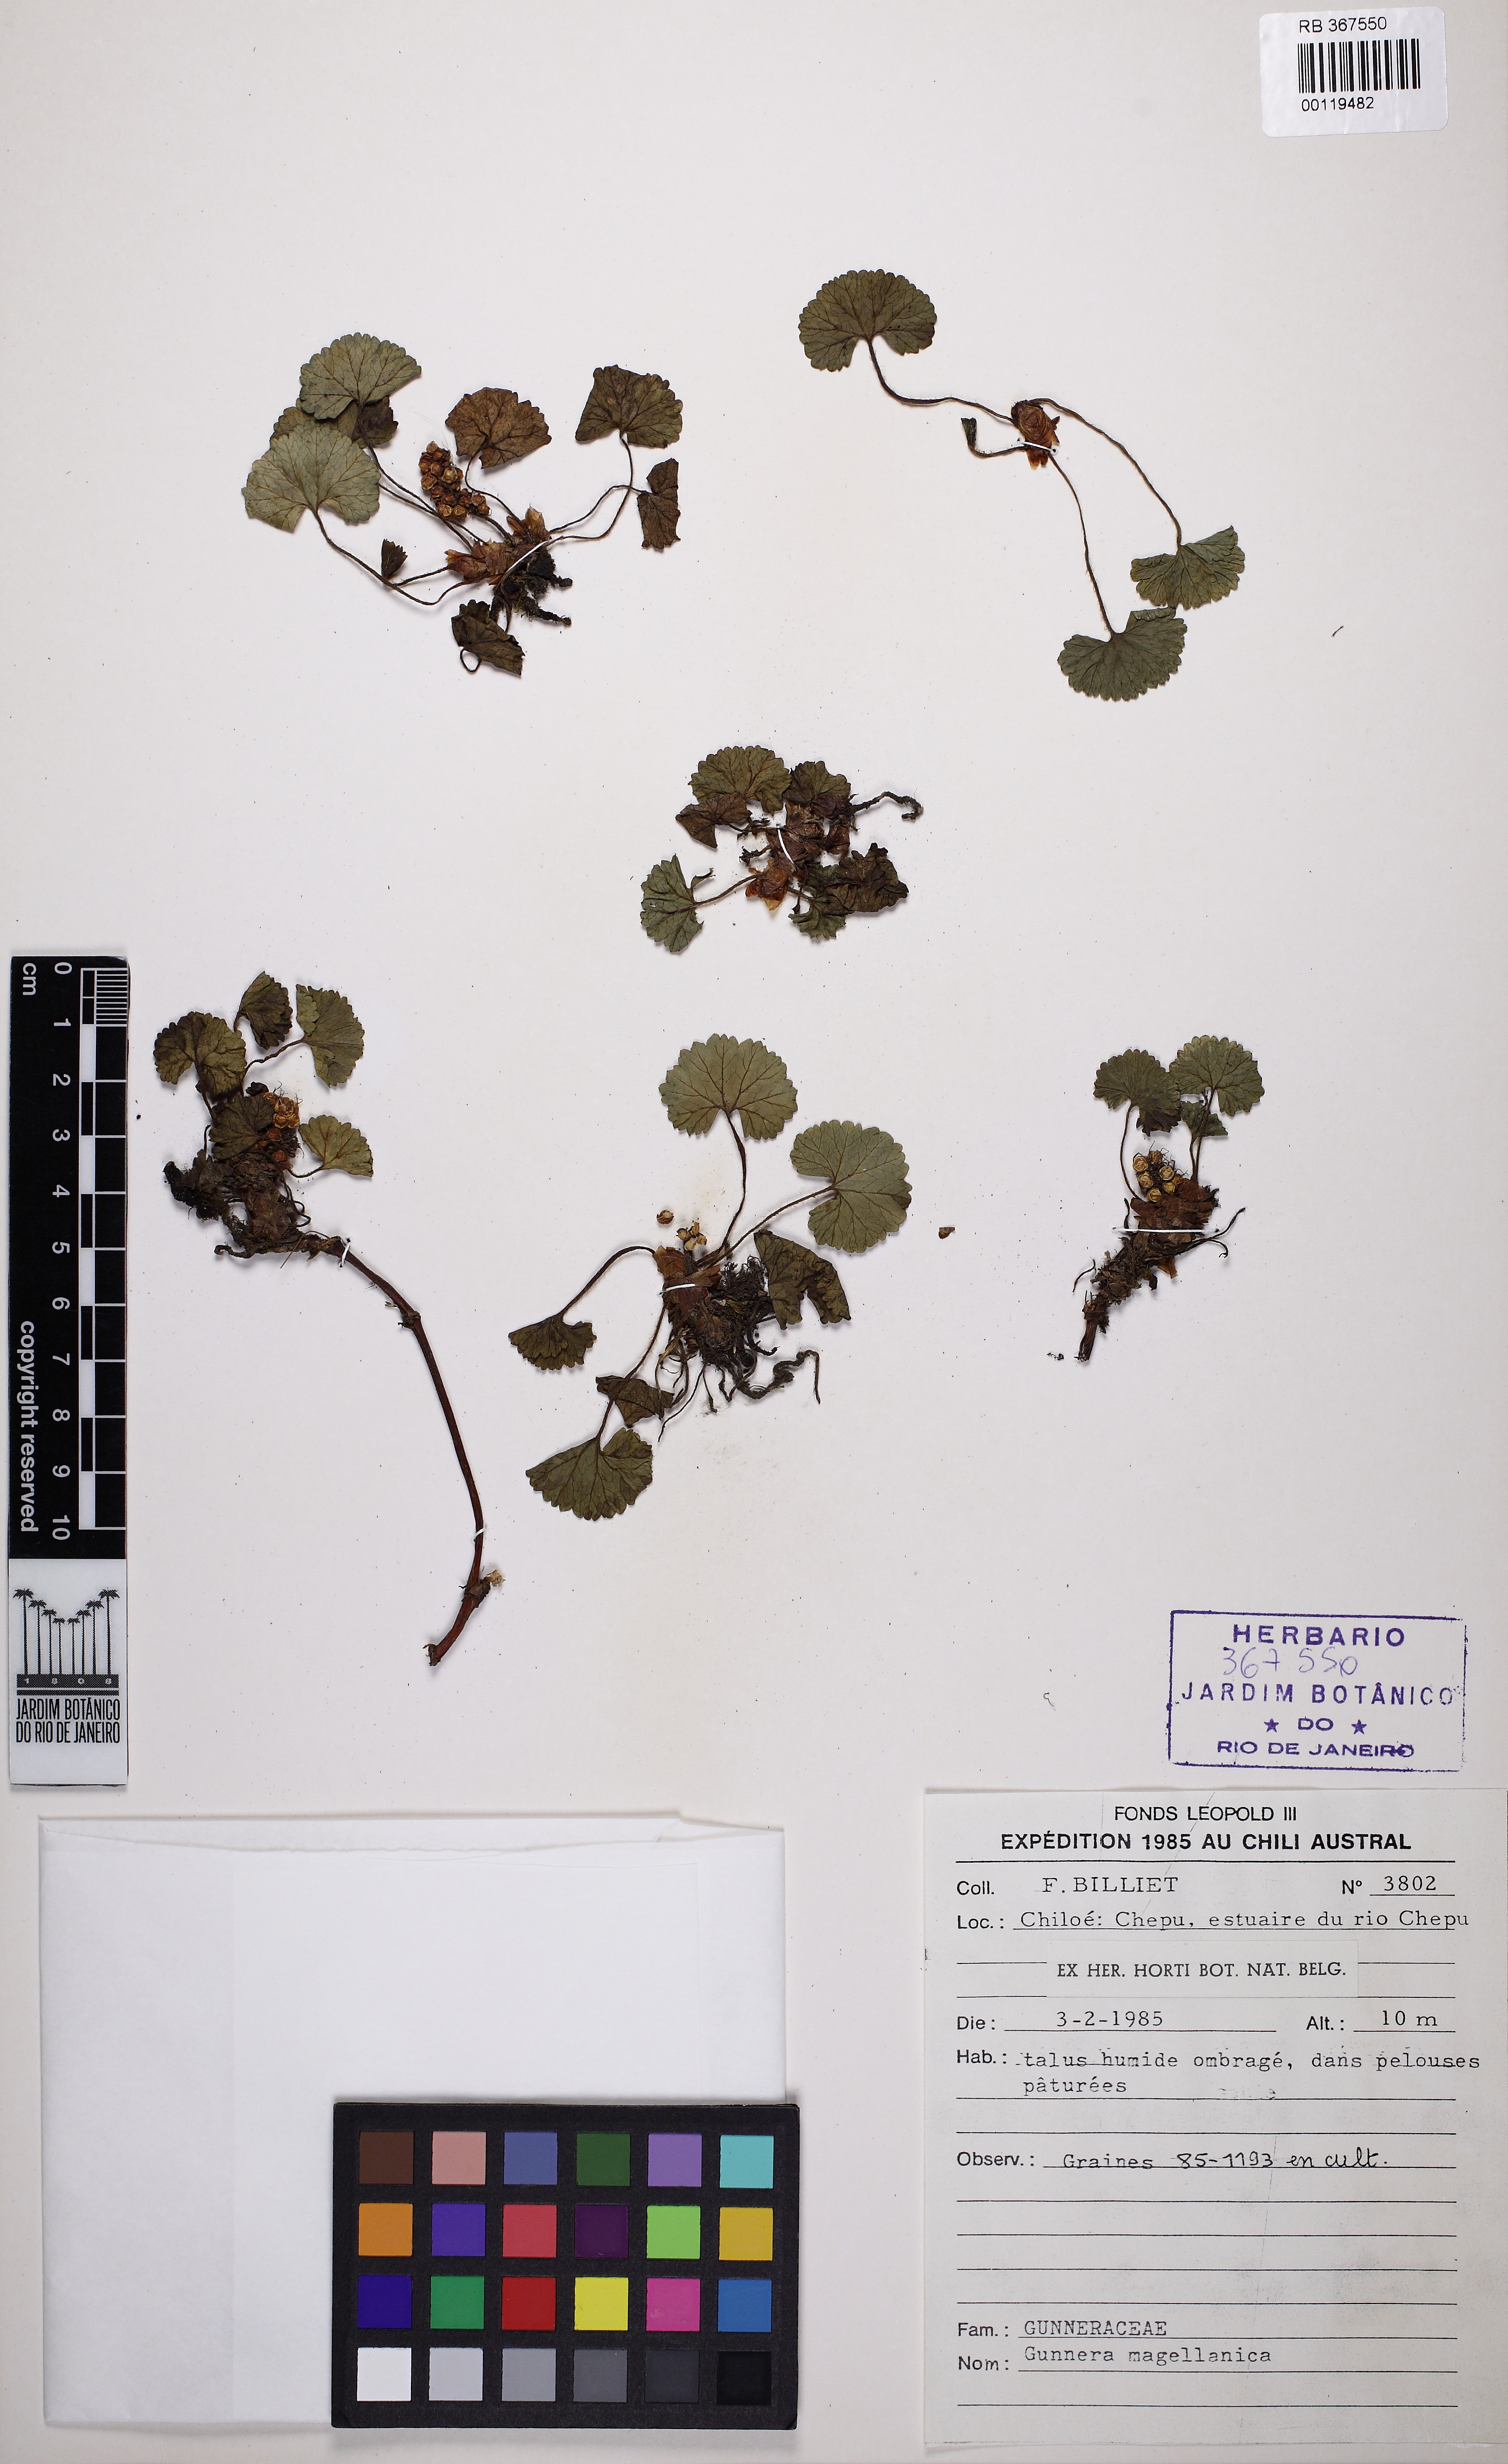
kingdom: Plantae
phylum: Tracheophyta
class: Magnoliopsida
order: Gunnerales
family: Gunneraceae
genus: Gunnera
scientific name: Gunnera magellanica
